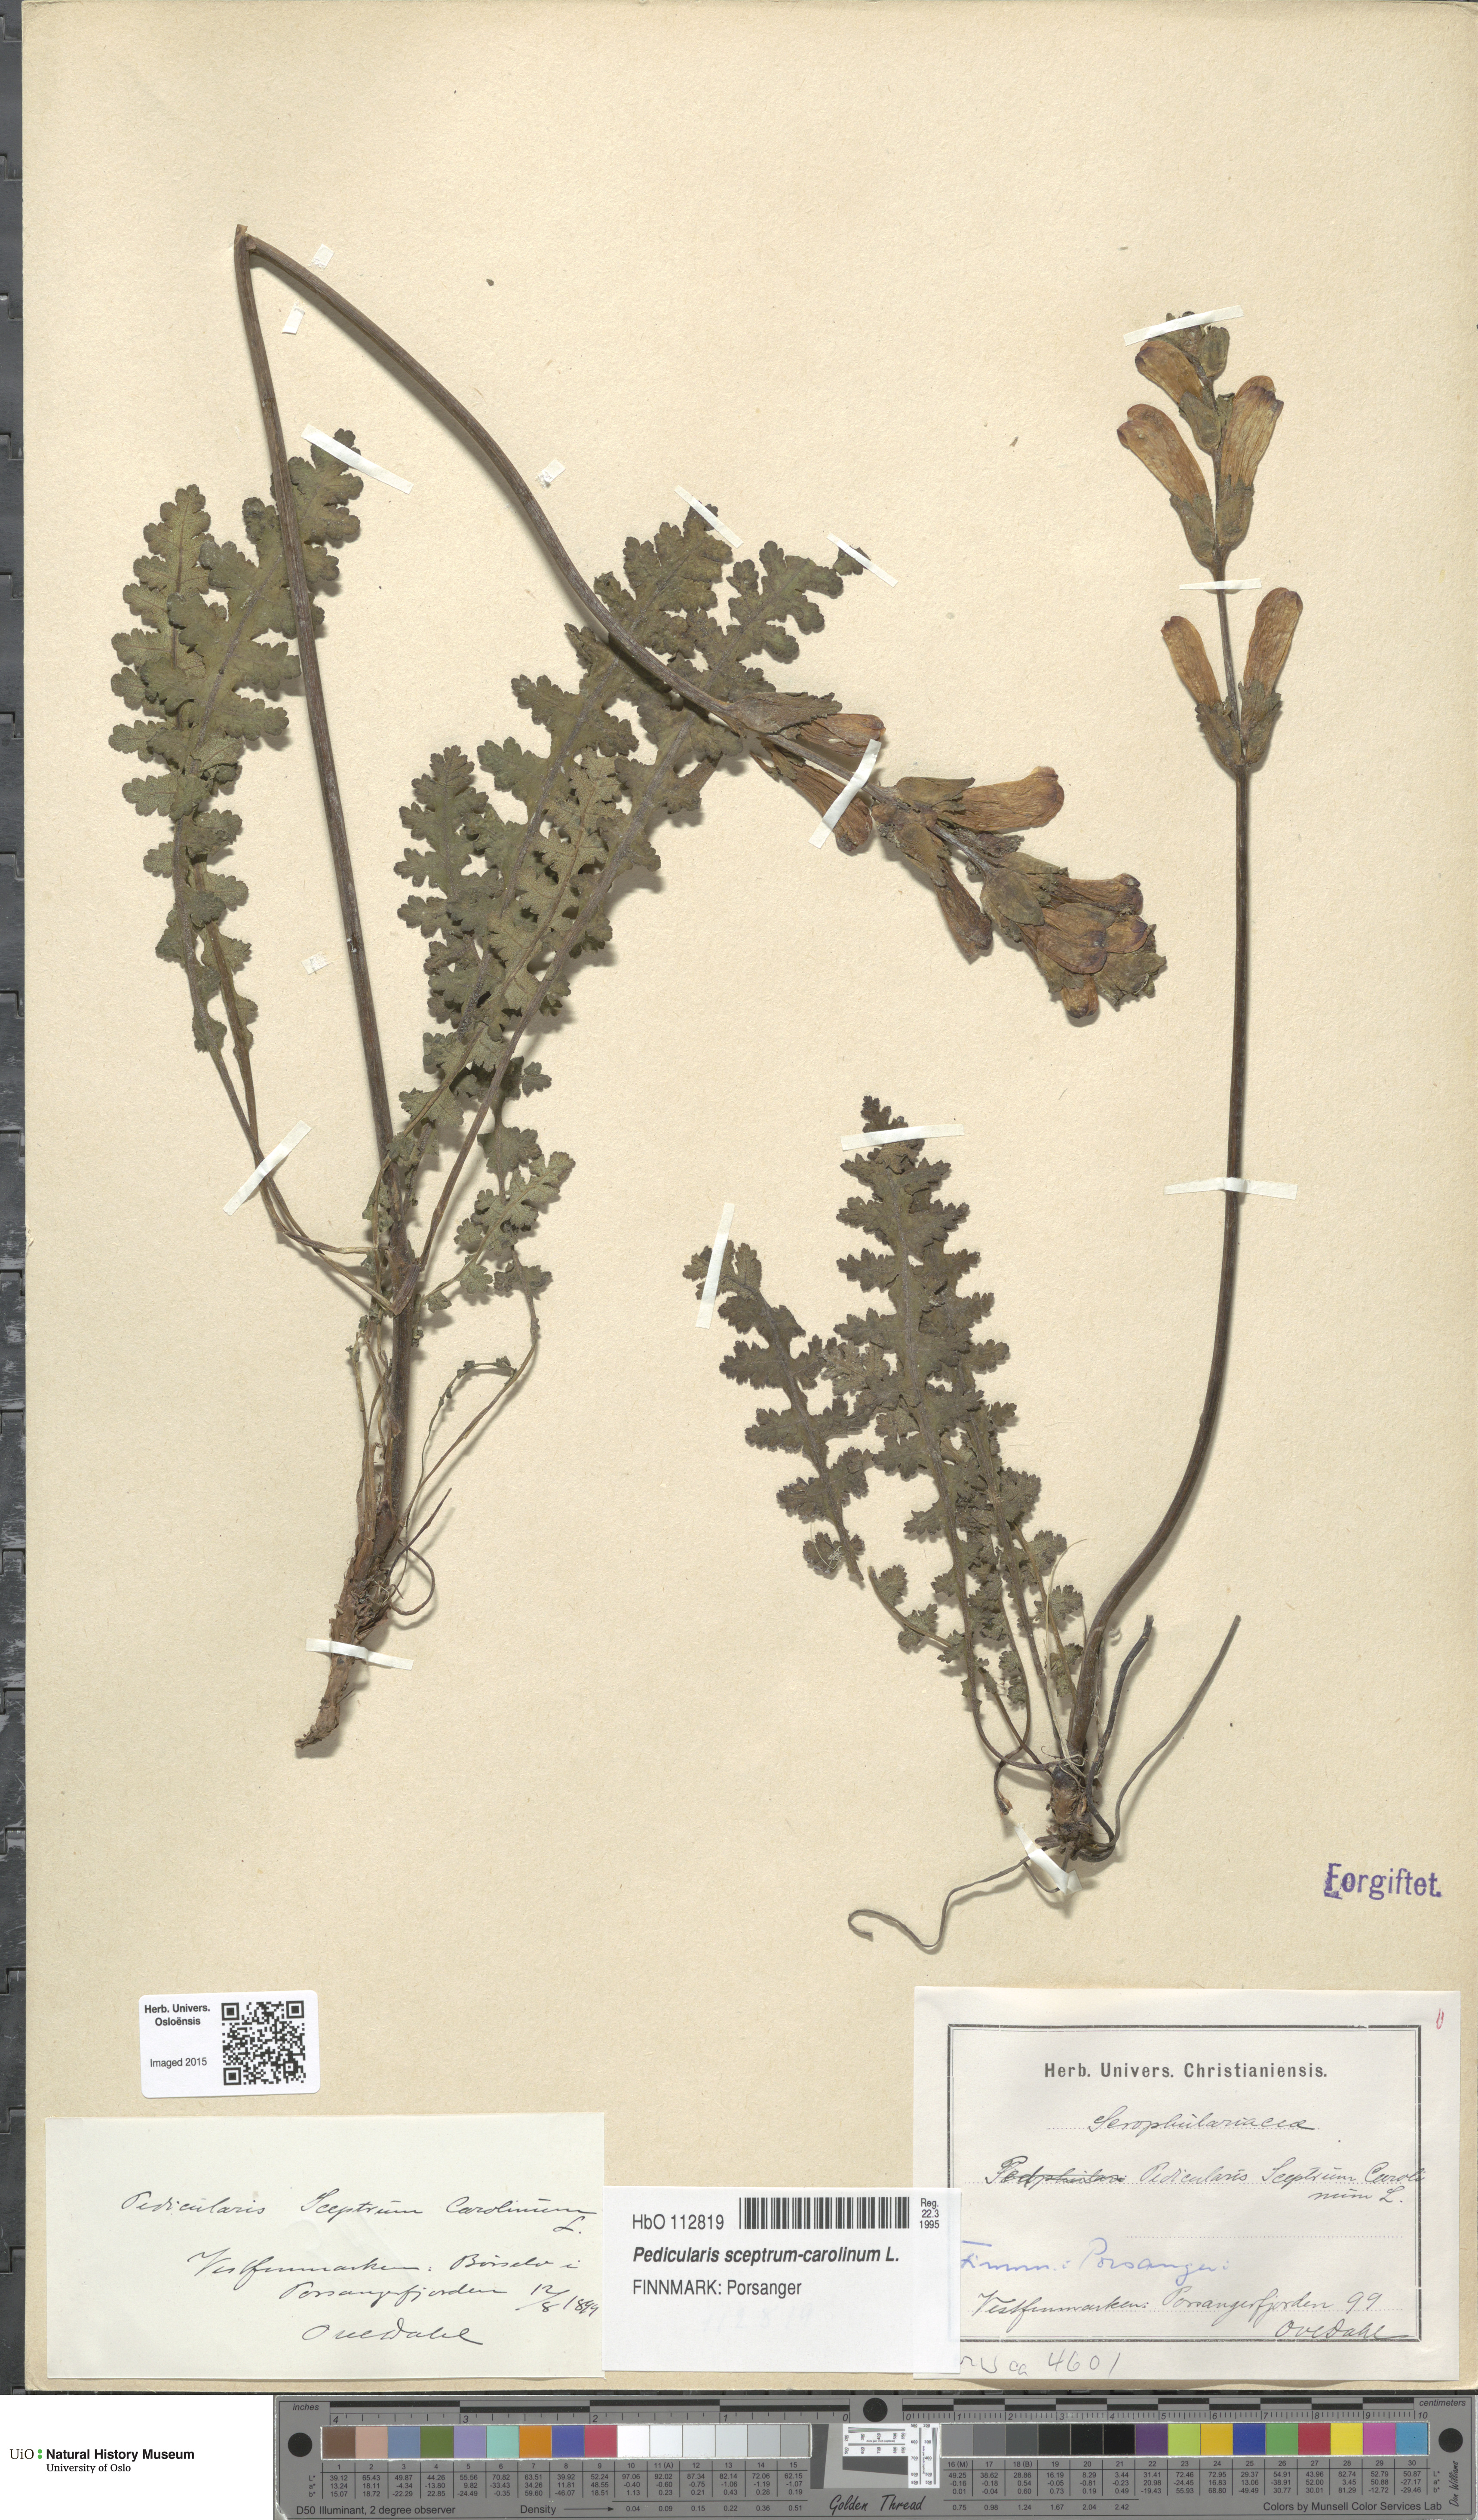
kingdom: Plantae
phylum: Tracheophyta
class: Magnoliopsida
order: Lamiales
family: Orobanchaceae
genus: Pedicularis
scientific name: Pedicularis sceptrum-carolinum
